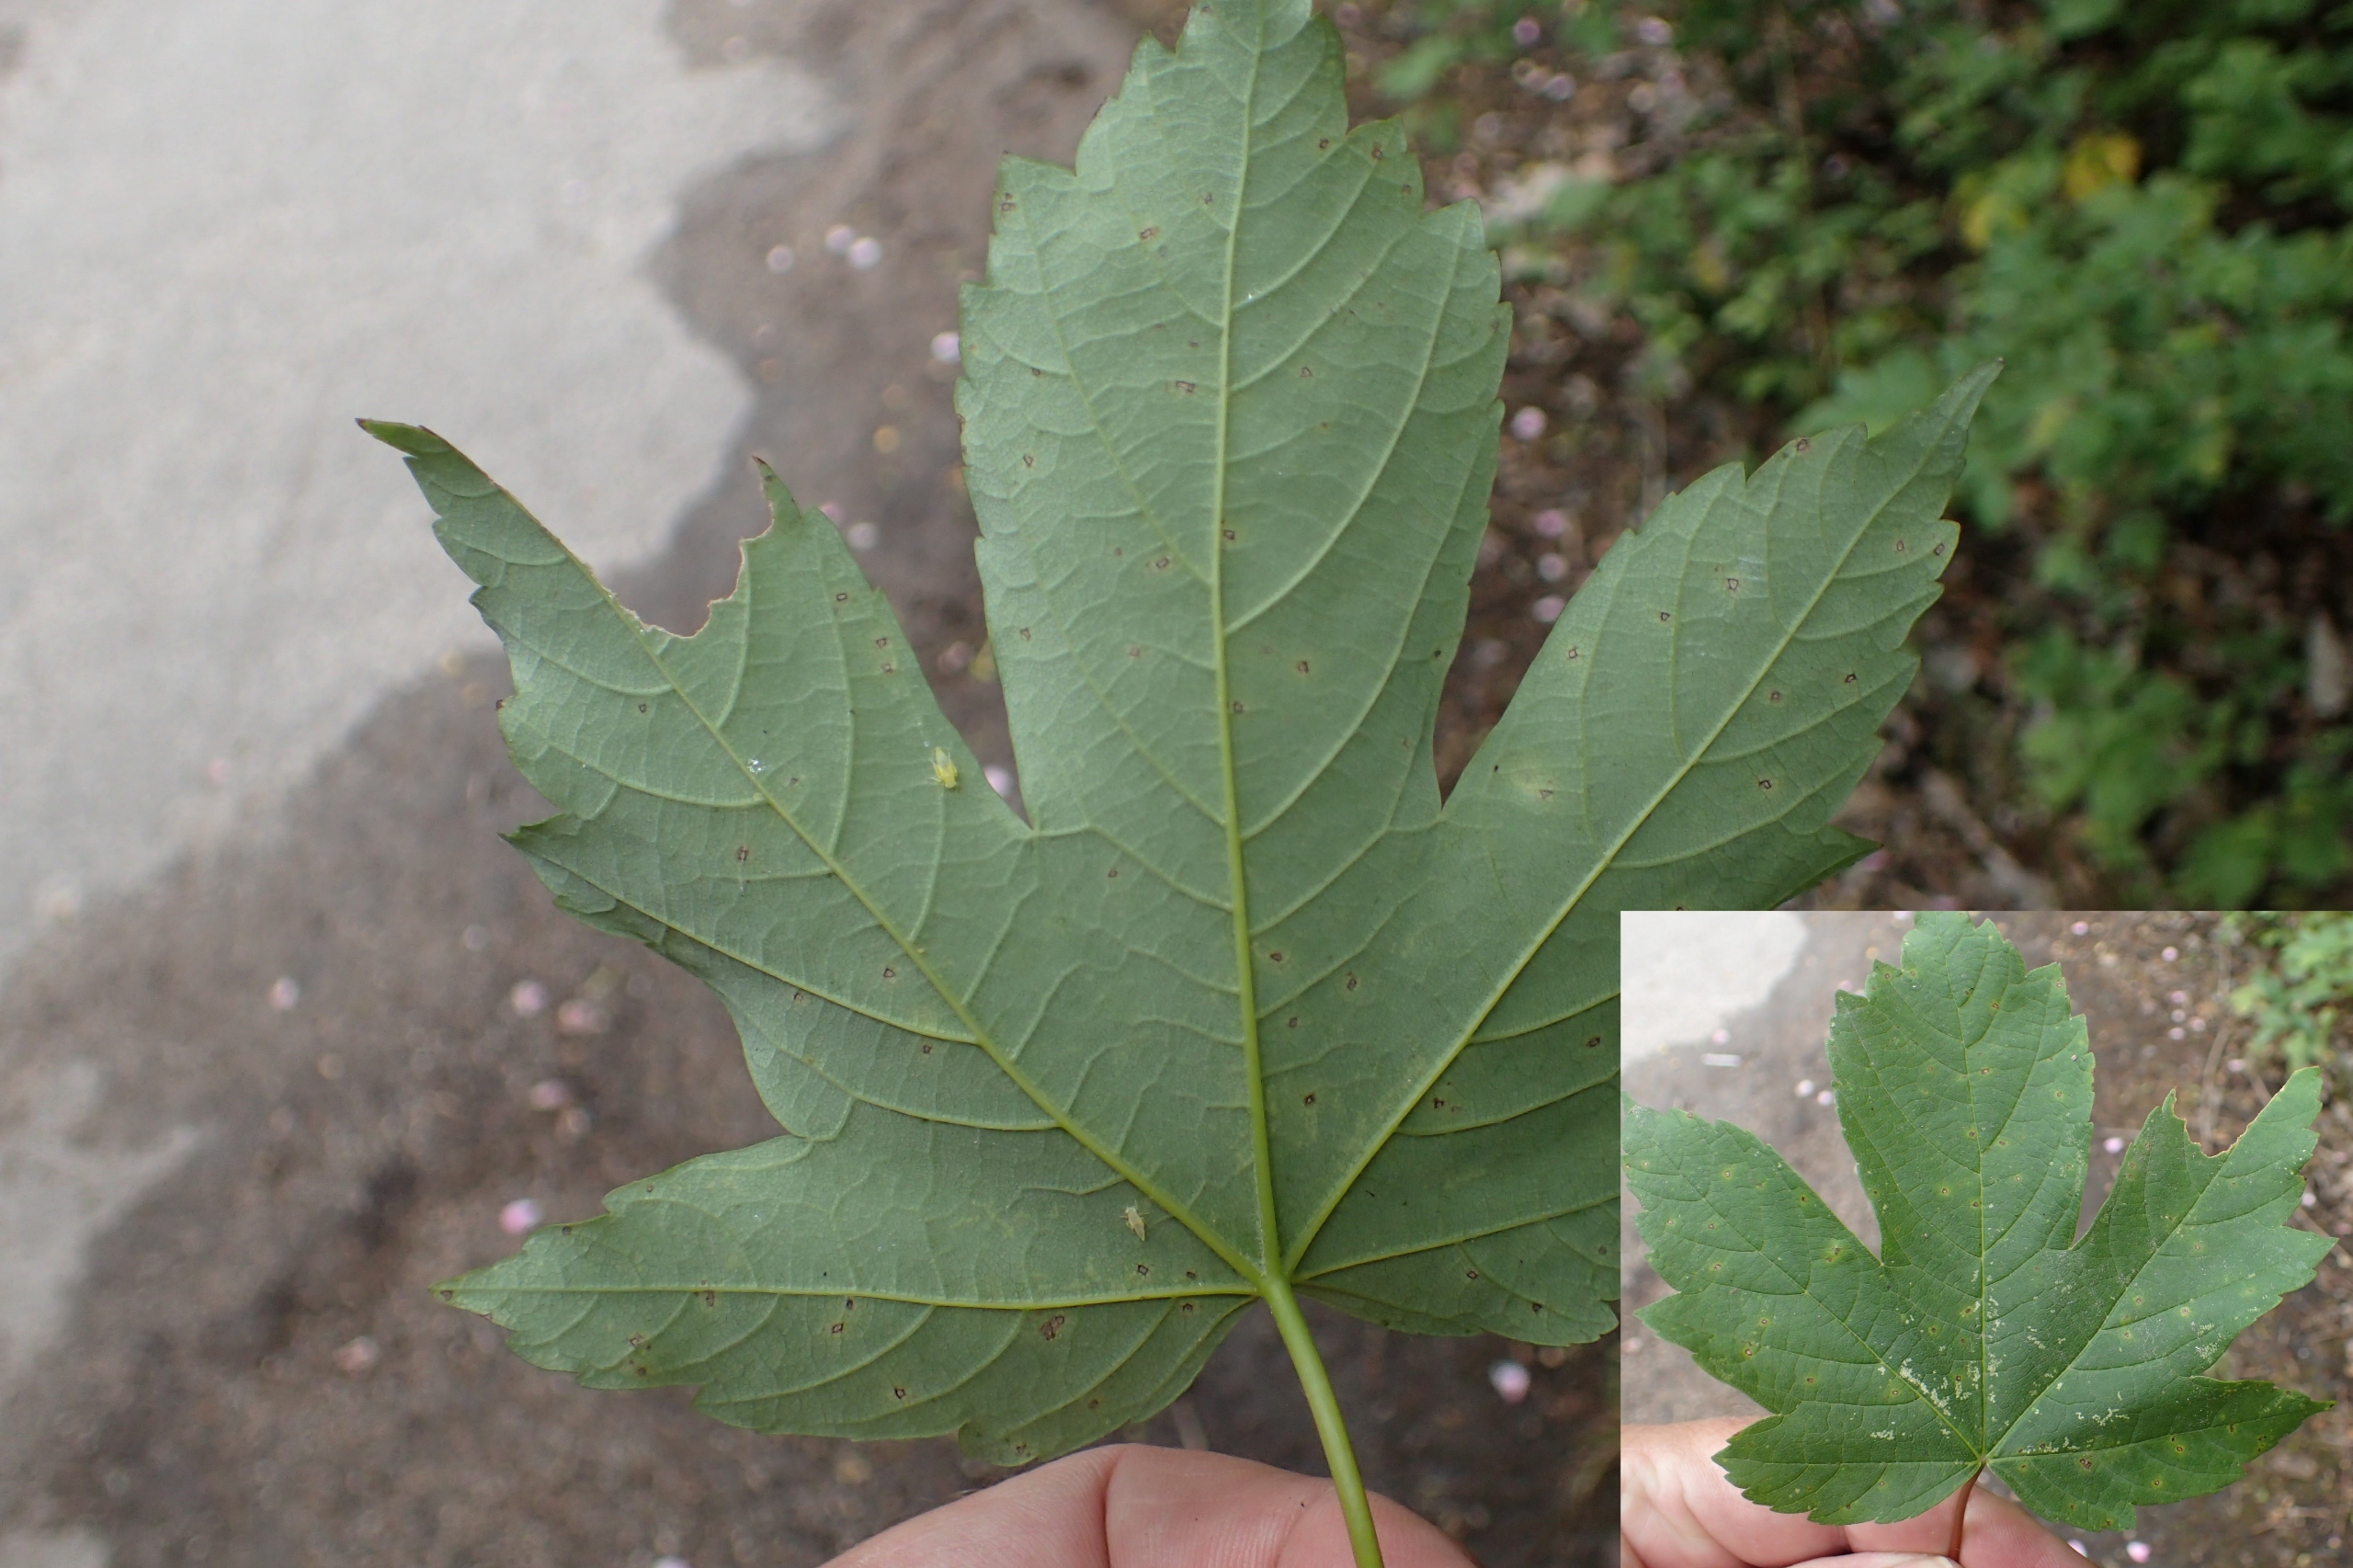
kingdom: Plantae
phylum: Tracheophyta
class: Magnoliopsida
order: Sapindales
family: Sapindaceae
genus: Acer
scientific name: Acer pseudoplatanus
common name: Ahorn
